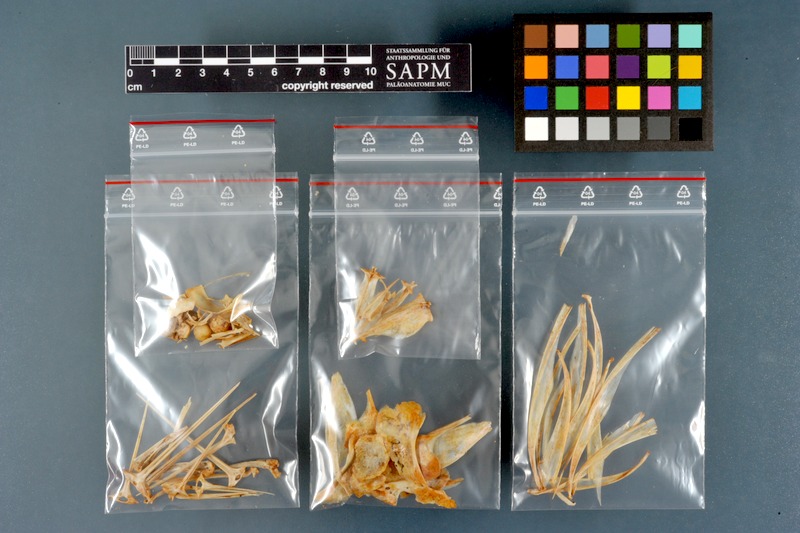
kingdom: Animalia
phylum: Chordata
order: Perciformes
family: Scombridae
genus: Euthynnus
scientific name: Euthynnus alletteratus
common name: Little tunny
